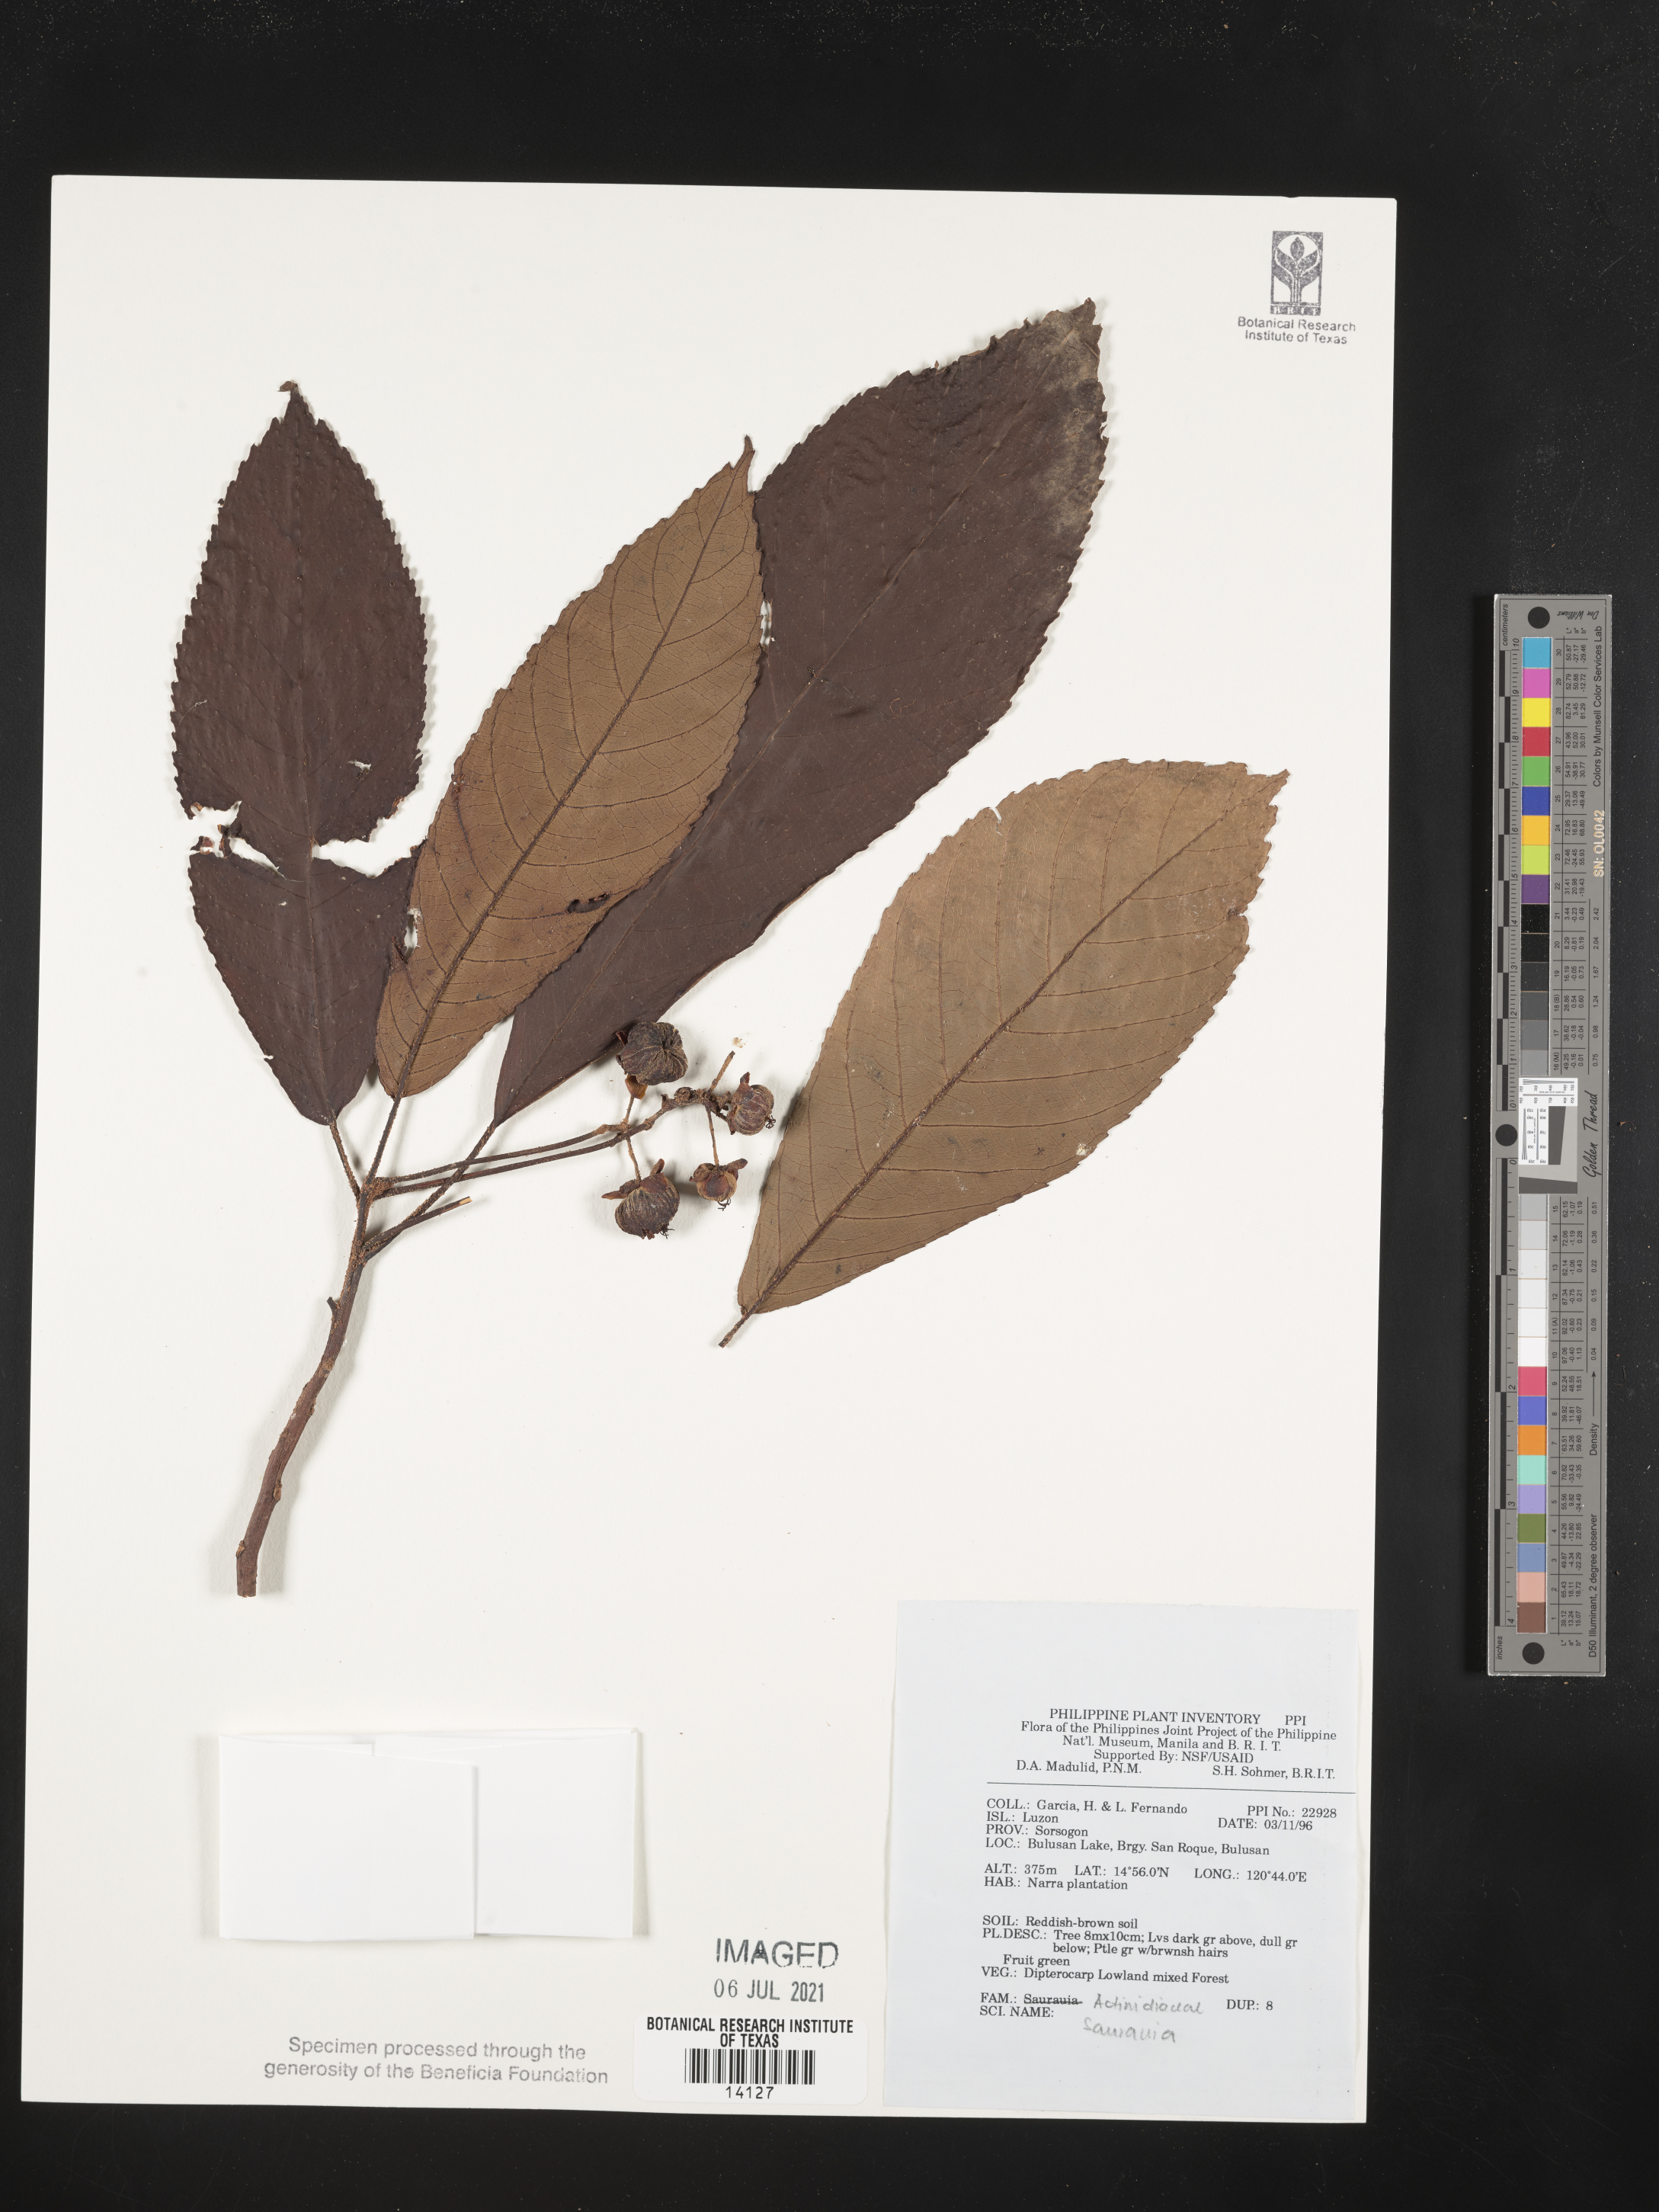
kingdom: Plantae
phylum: Tracheophyta
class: Magnoliopsida
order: Ericales
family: Actinidiaceae
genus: Saurauia
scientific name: Saurauia
